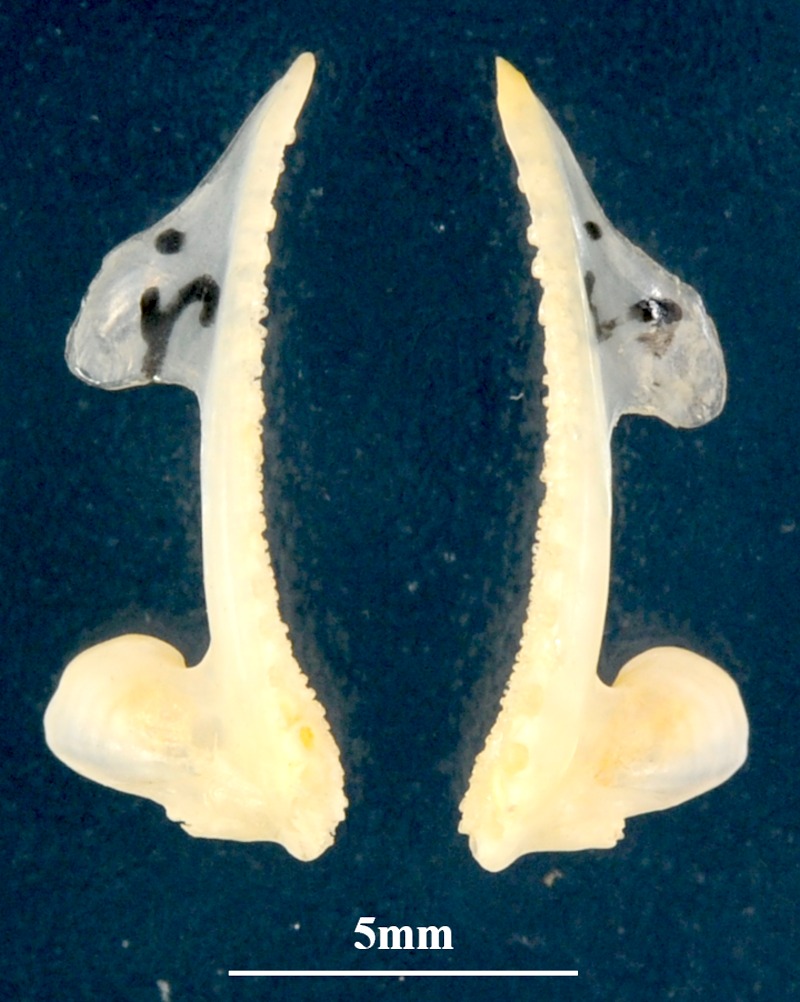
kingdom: Animalia
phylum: Chordata
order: Perciformes
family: Serranidae
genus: Serranus
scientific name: Serranus scriba
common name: Painted comber
